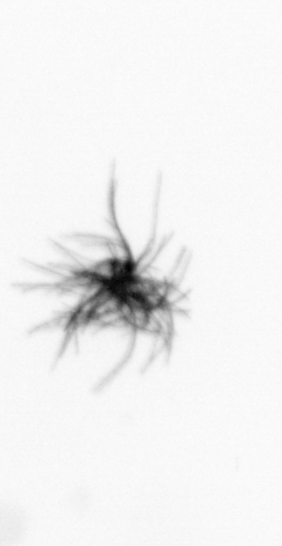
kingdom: Bacteria
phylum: Cyanobacteria
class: Cyanobacteriia
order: Cyanobacteriales
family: Microcoleaceae
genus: Trichodesmium
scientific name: Trichodesmium
